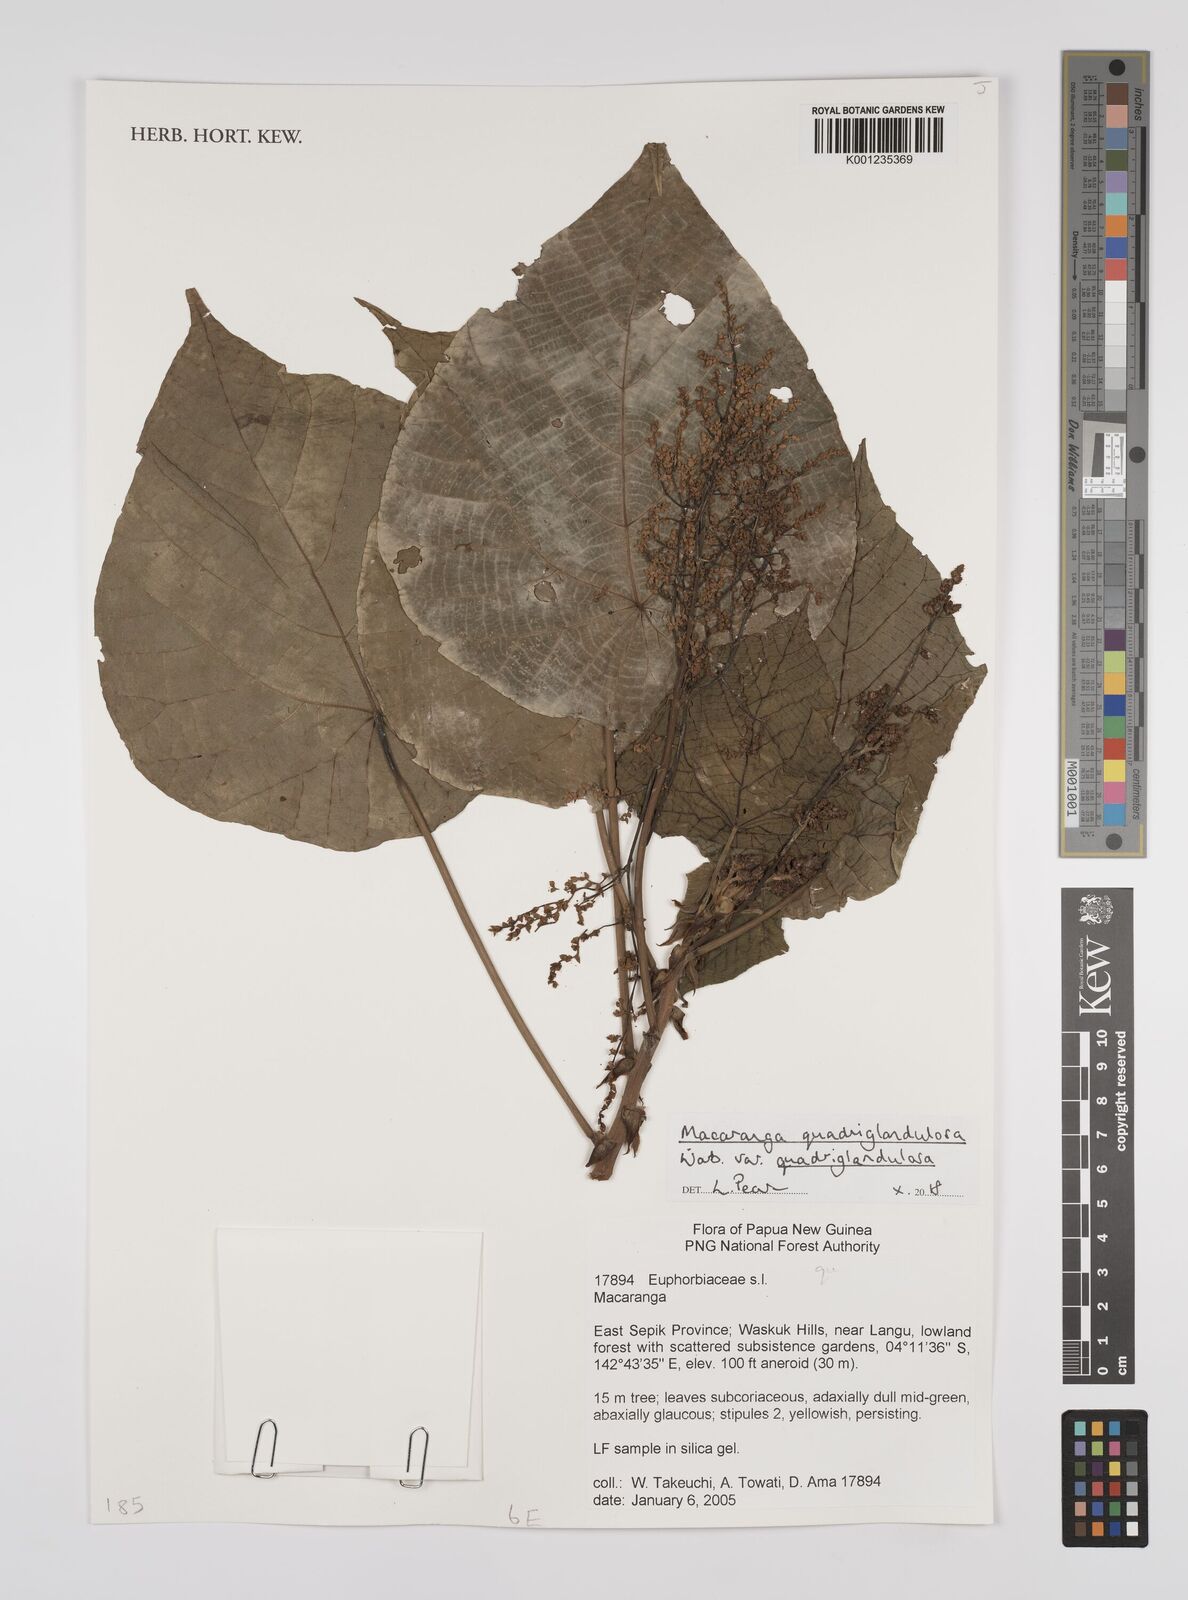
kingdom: Plantae
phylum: Tracheophyta
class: Magnoliopsida
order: Malpighiales
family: Euphorbiaceae
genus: Macaranga
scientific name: Macaranga quadriglandulosa
